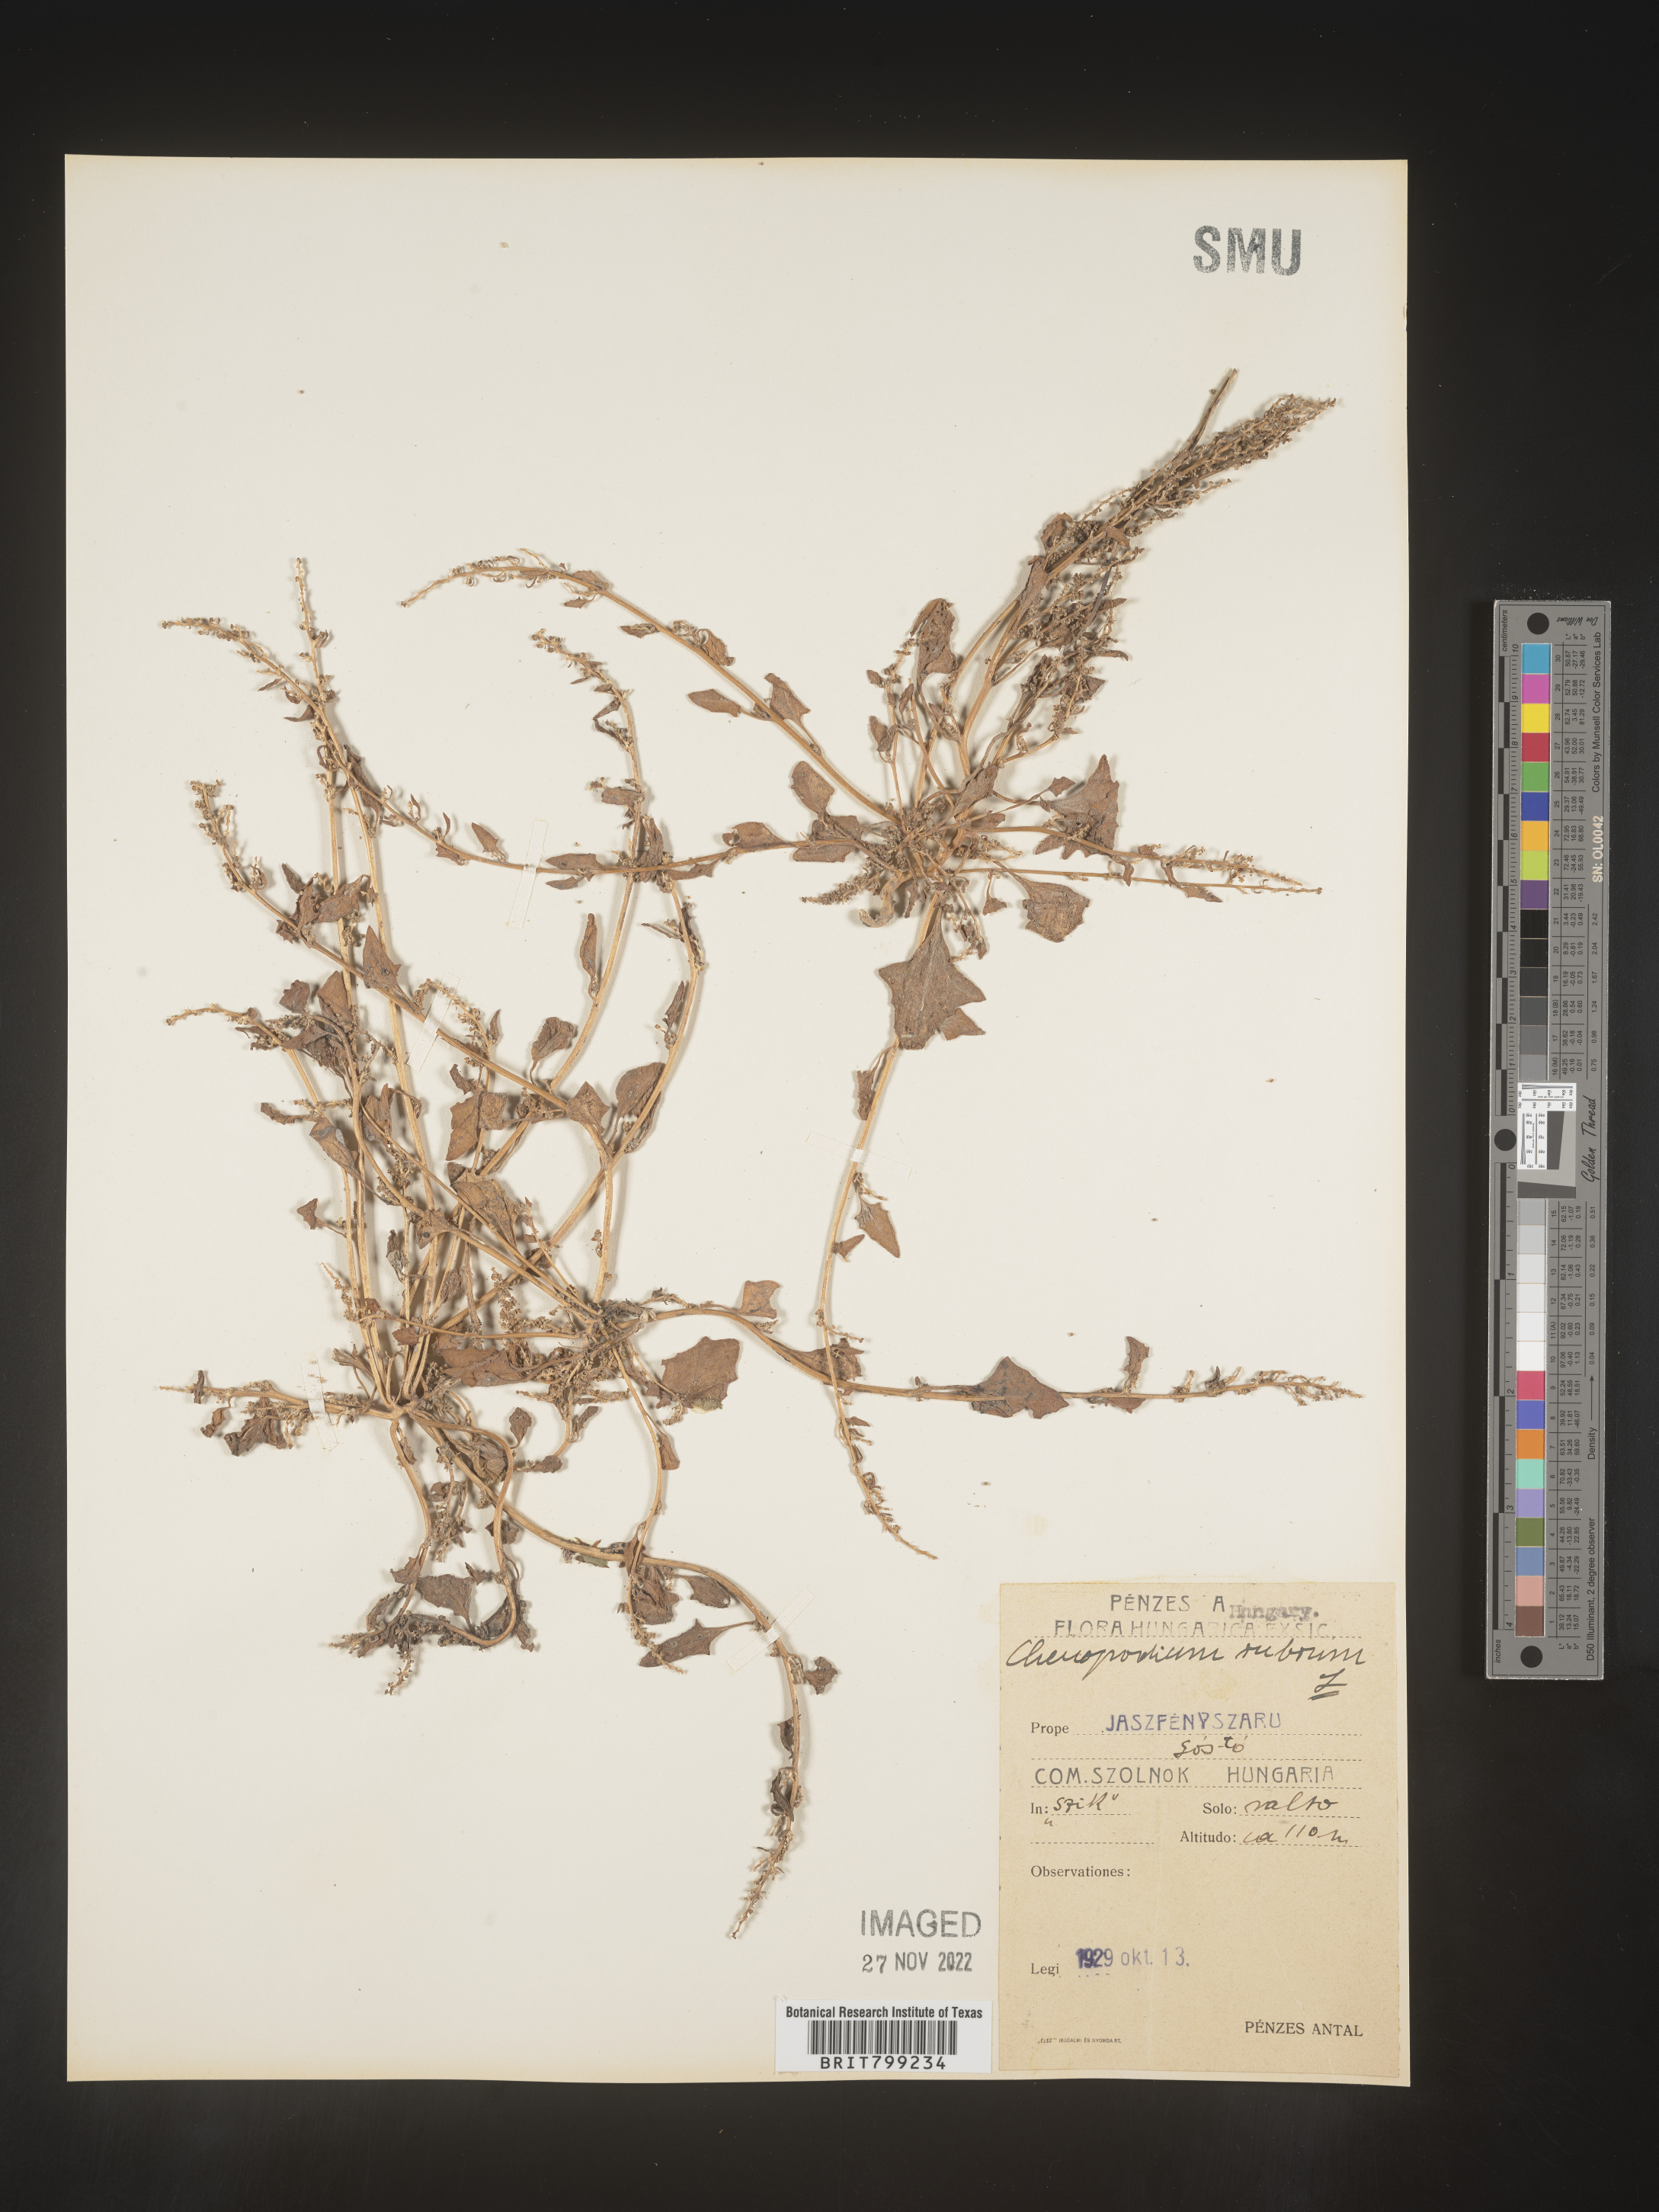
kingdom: Plantae
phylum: Tracheophyta
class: Magnoliopsida
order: Caryophyllales
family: Amaranthaceae
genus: Oxybasis
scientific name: Oxybasis rubra
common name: Red goosefoot
